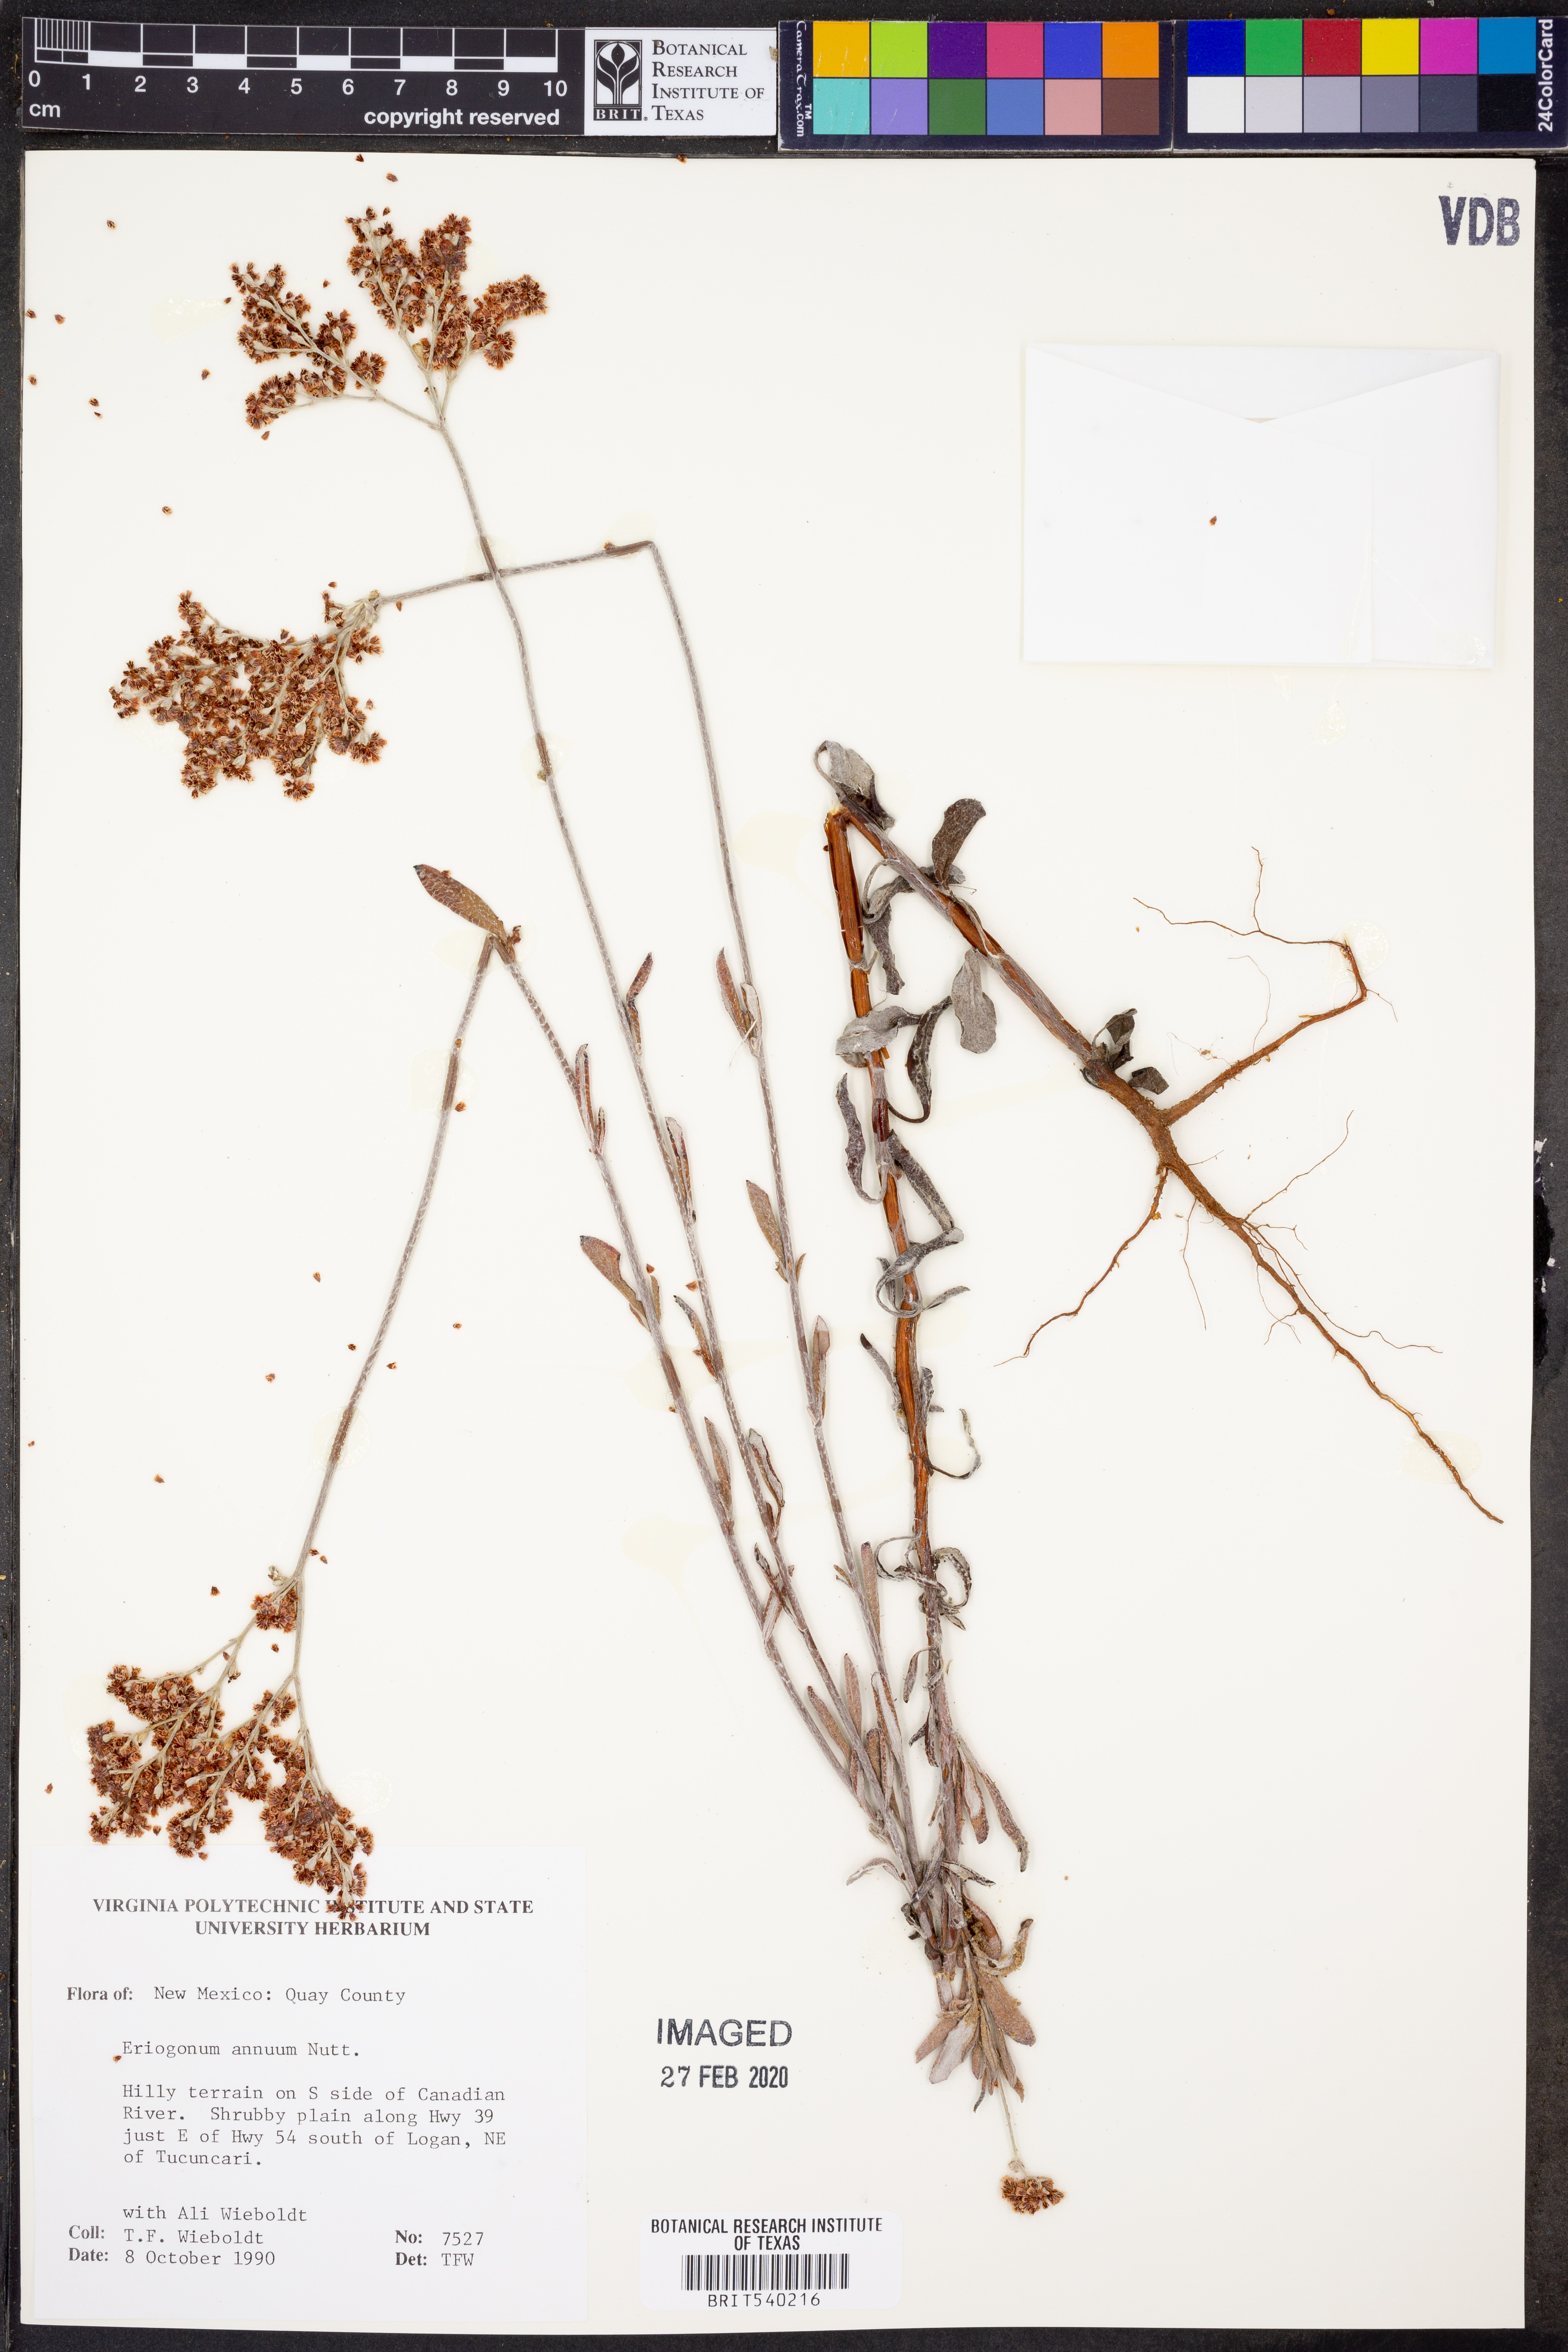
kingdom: Plantae
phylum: Tracheophyta
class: Magnoliopsida
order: Caryophyllales
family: Polygonaceae
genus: Eriogonum
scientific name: Eriogonum annuum
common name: Annual wild buckwheat
